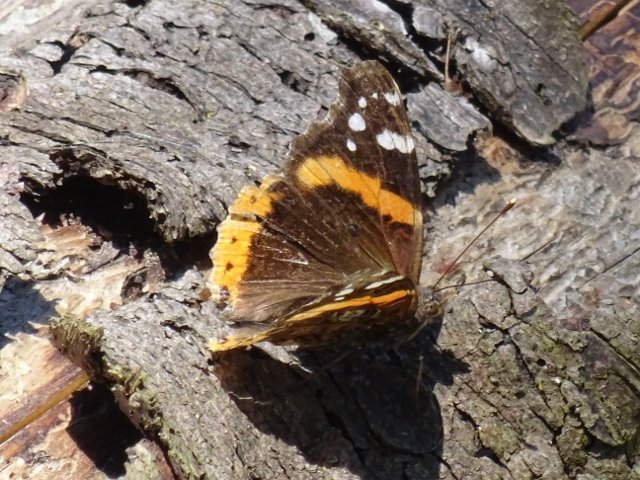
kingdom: Animalia
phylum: Arthropoda
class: Insecta
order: Lepidoptera
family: Nymphalidae
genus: Vanessa
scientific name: Vanessa atalanta
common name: Red Admiral
